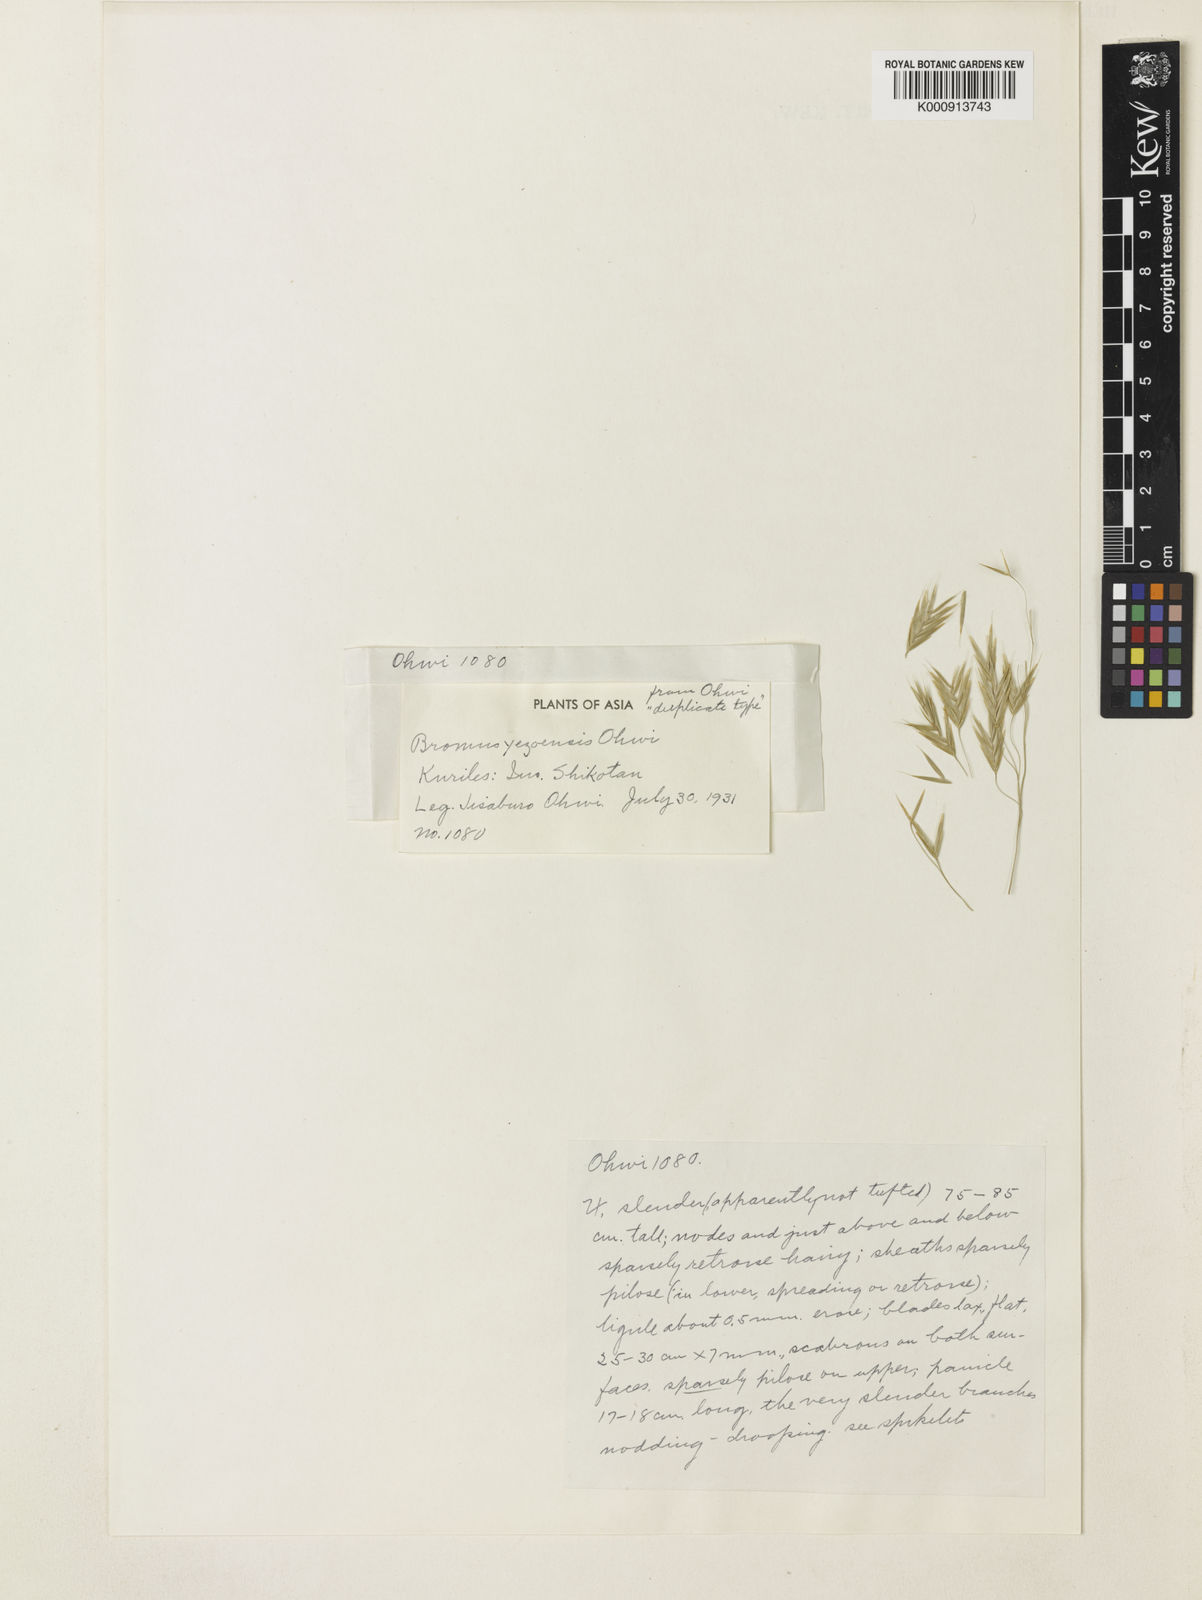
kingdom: Plantae
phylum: Tracheophyta
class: Liliopsida
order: Poales
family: Poaceae
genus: Bromus
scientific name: Bromus ciliatus
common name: Fringe brome
